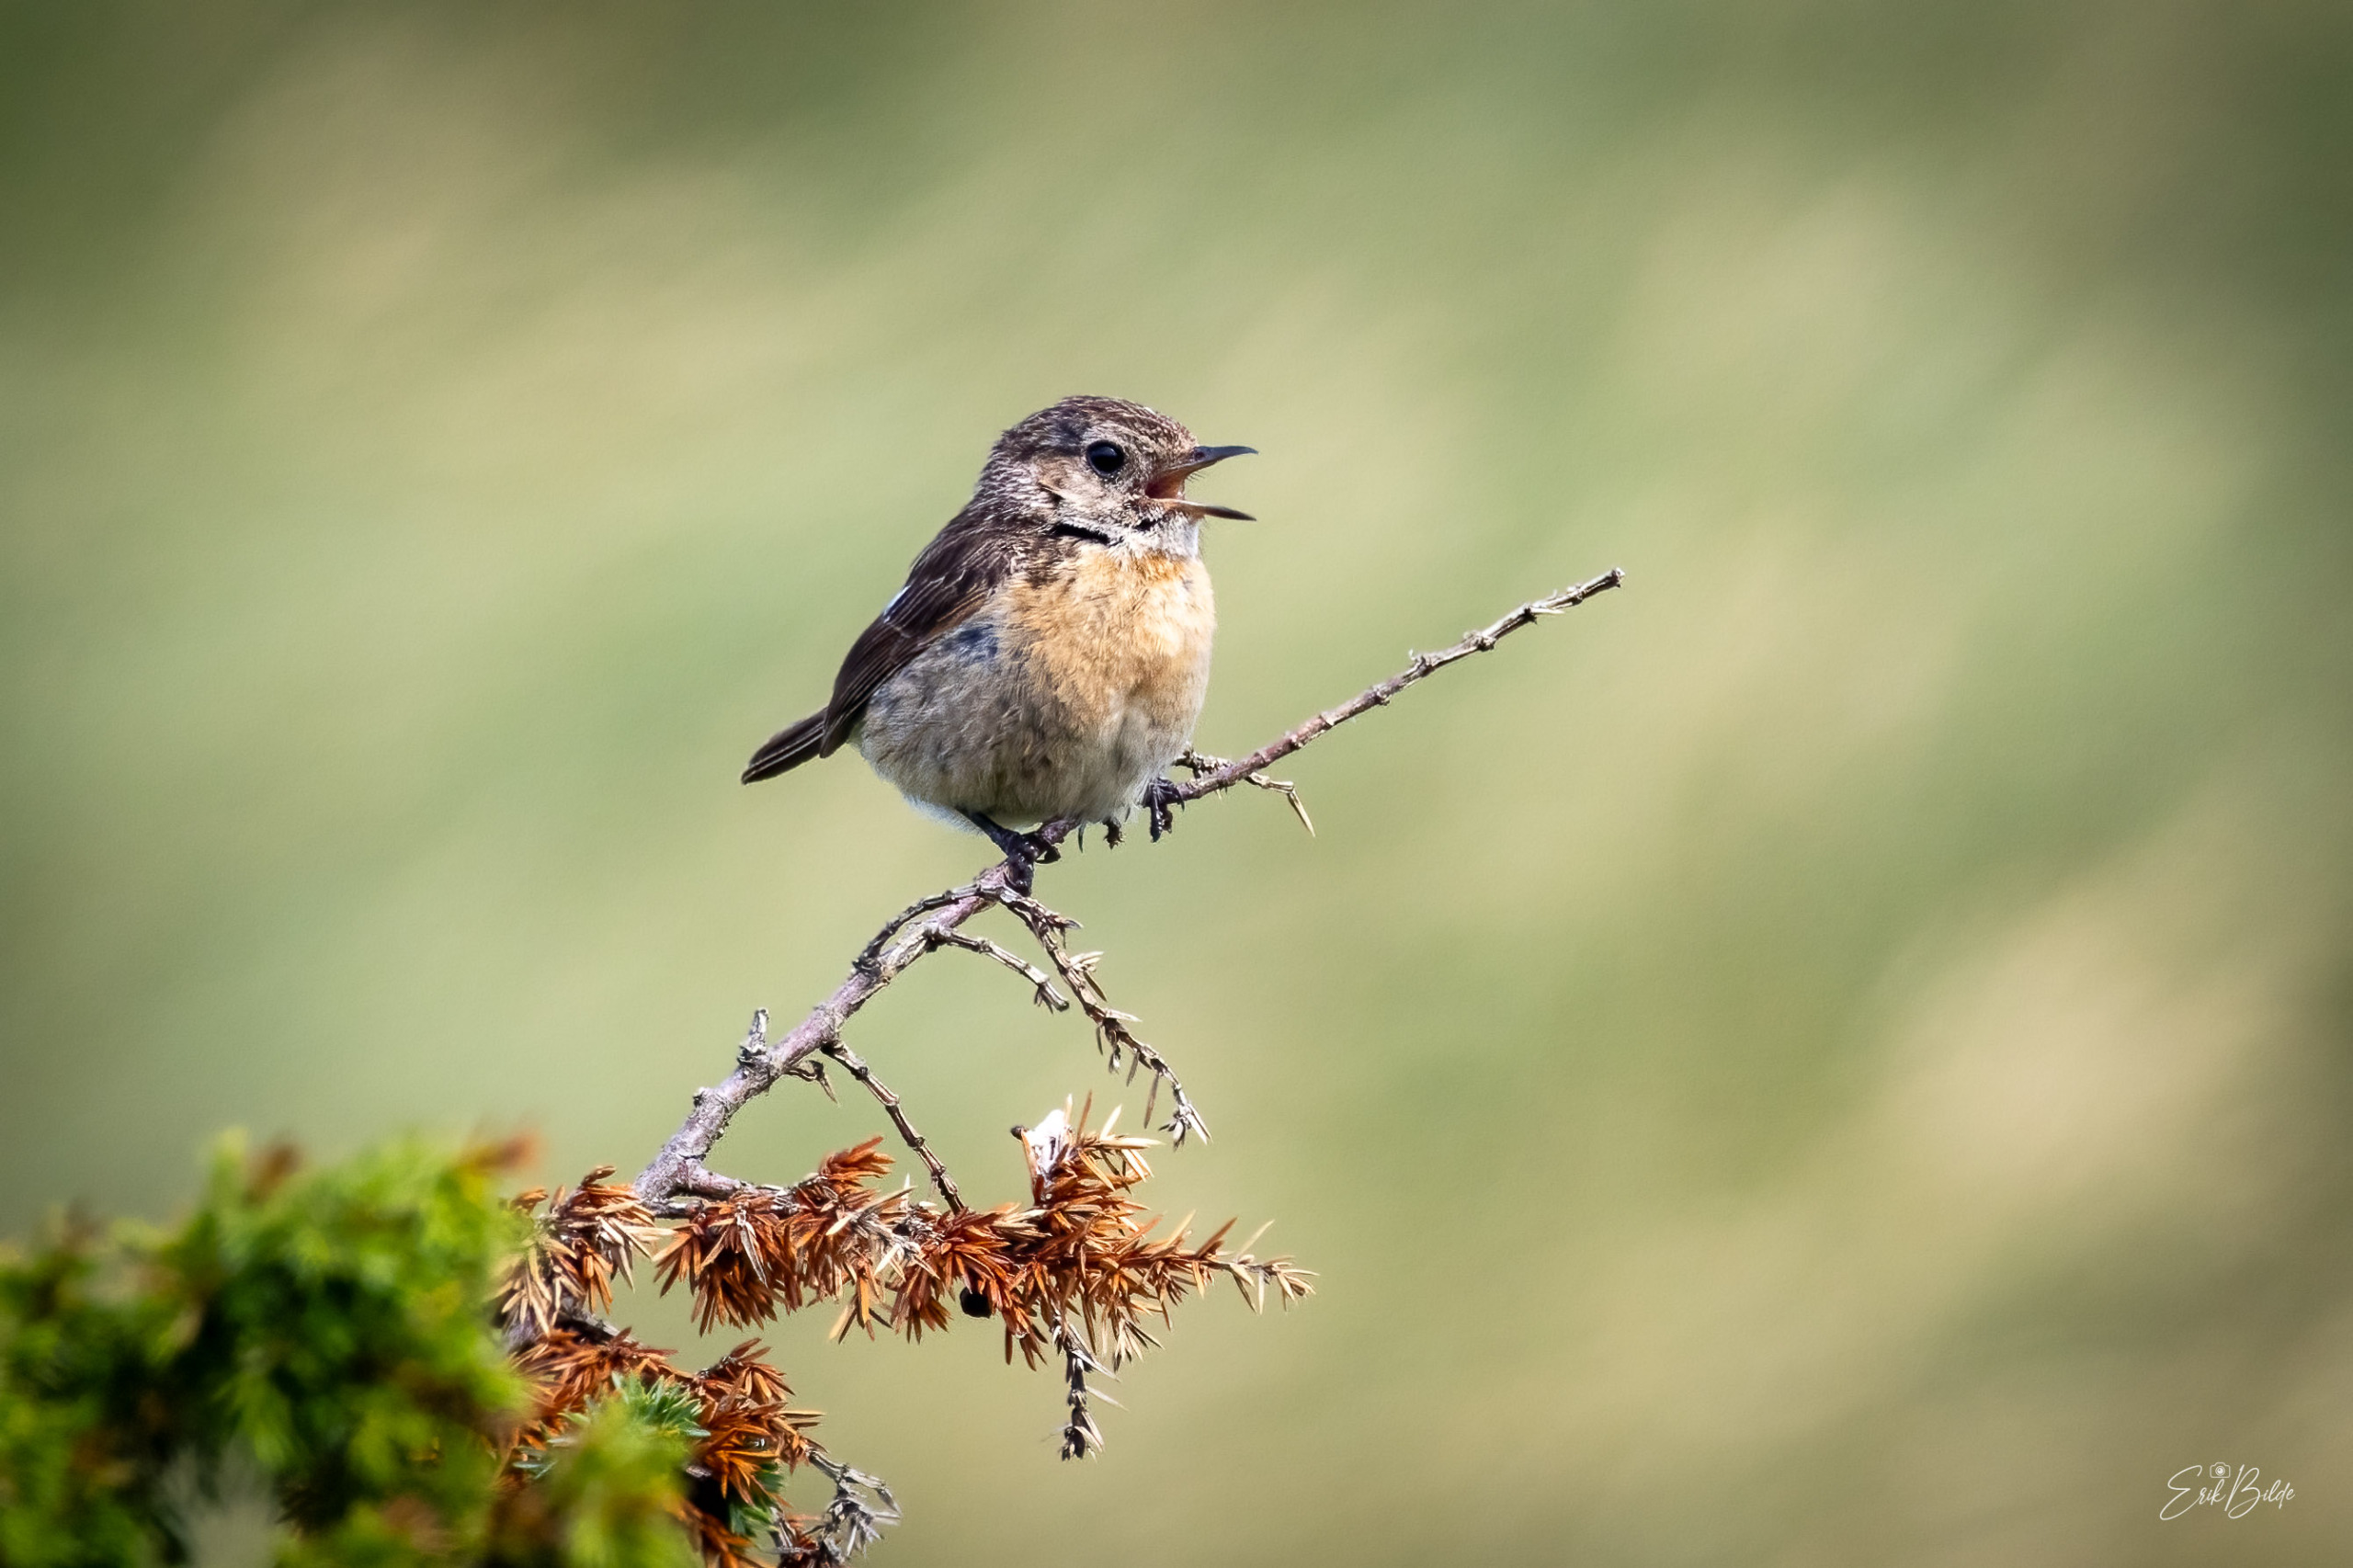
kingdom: Animalia
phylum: Chordata
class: Aves
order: Passeriformes
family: Muscicapidae
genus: Saxicola
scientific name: Saxicola rubicola
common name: Sortstrubet bynkefugl
